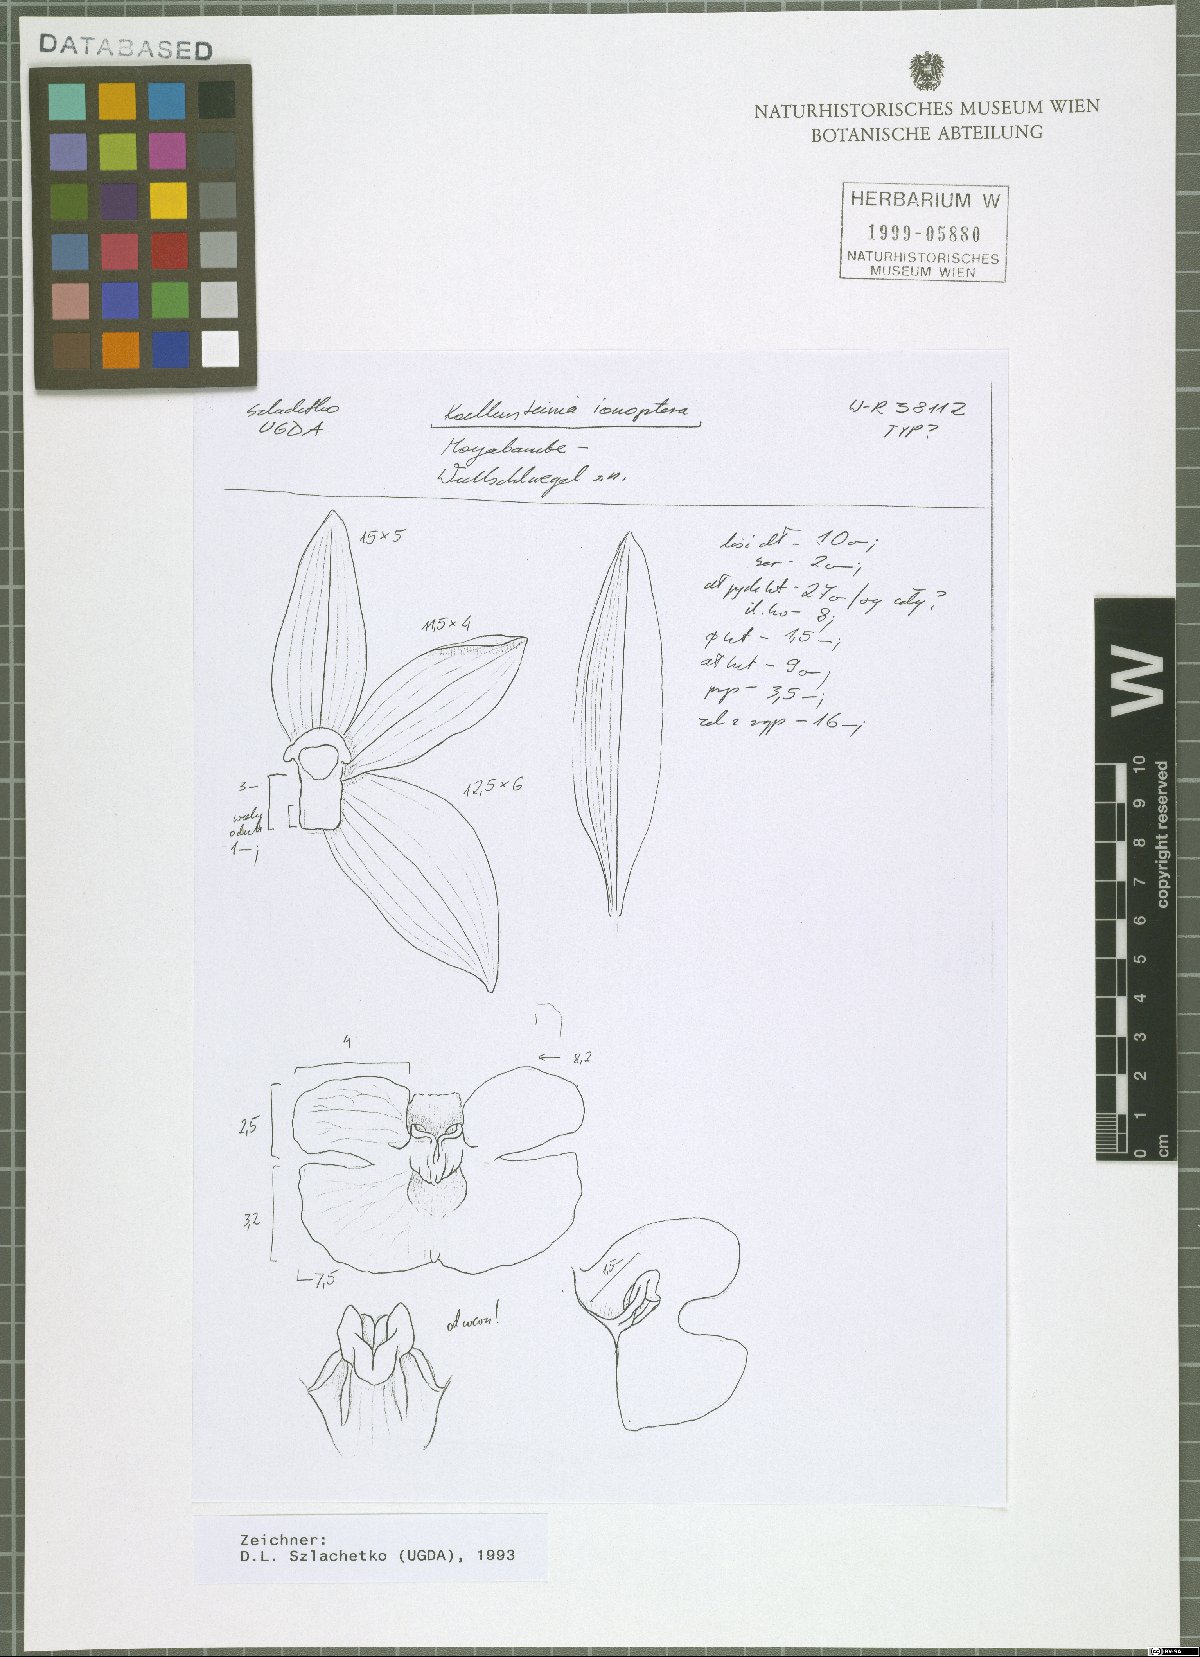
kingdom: Plantae
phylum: Tracheophyta
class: Liliopsida
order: Asparagales
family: Orchidaceae
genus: Koellensteinia
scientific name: Koellensteinia ionoptera
